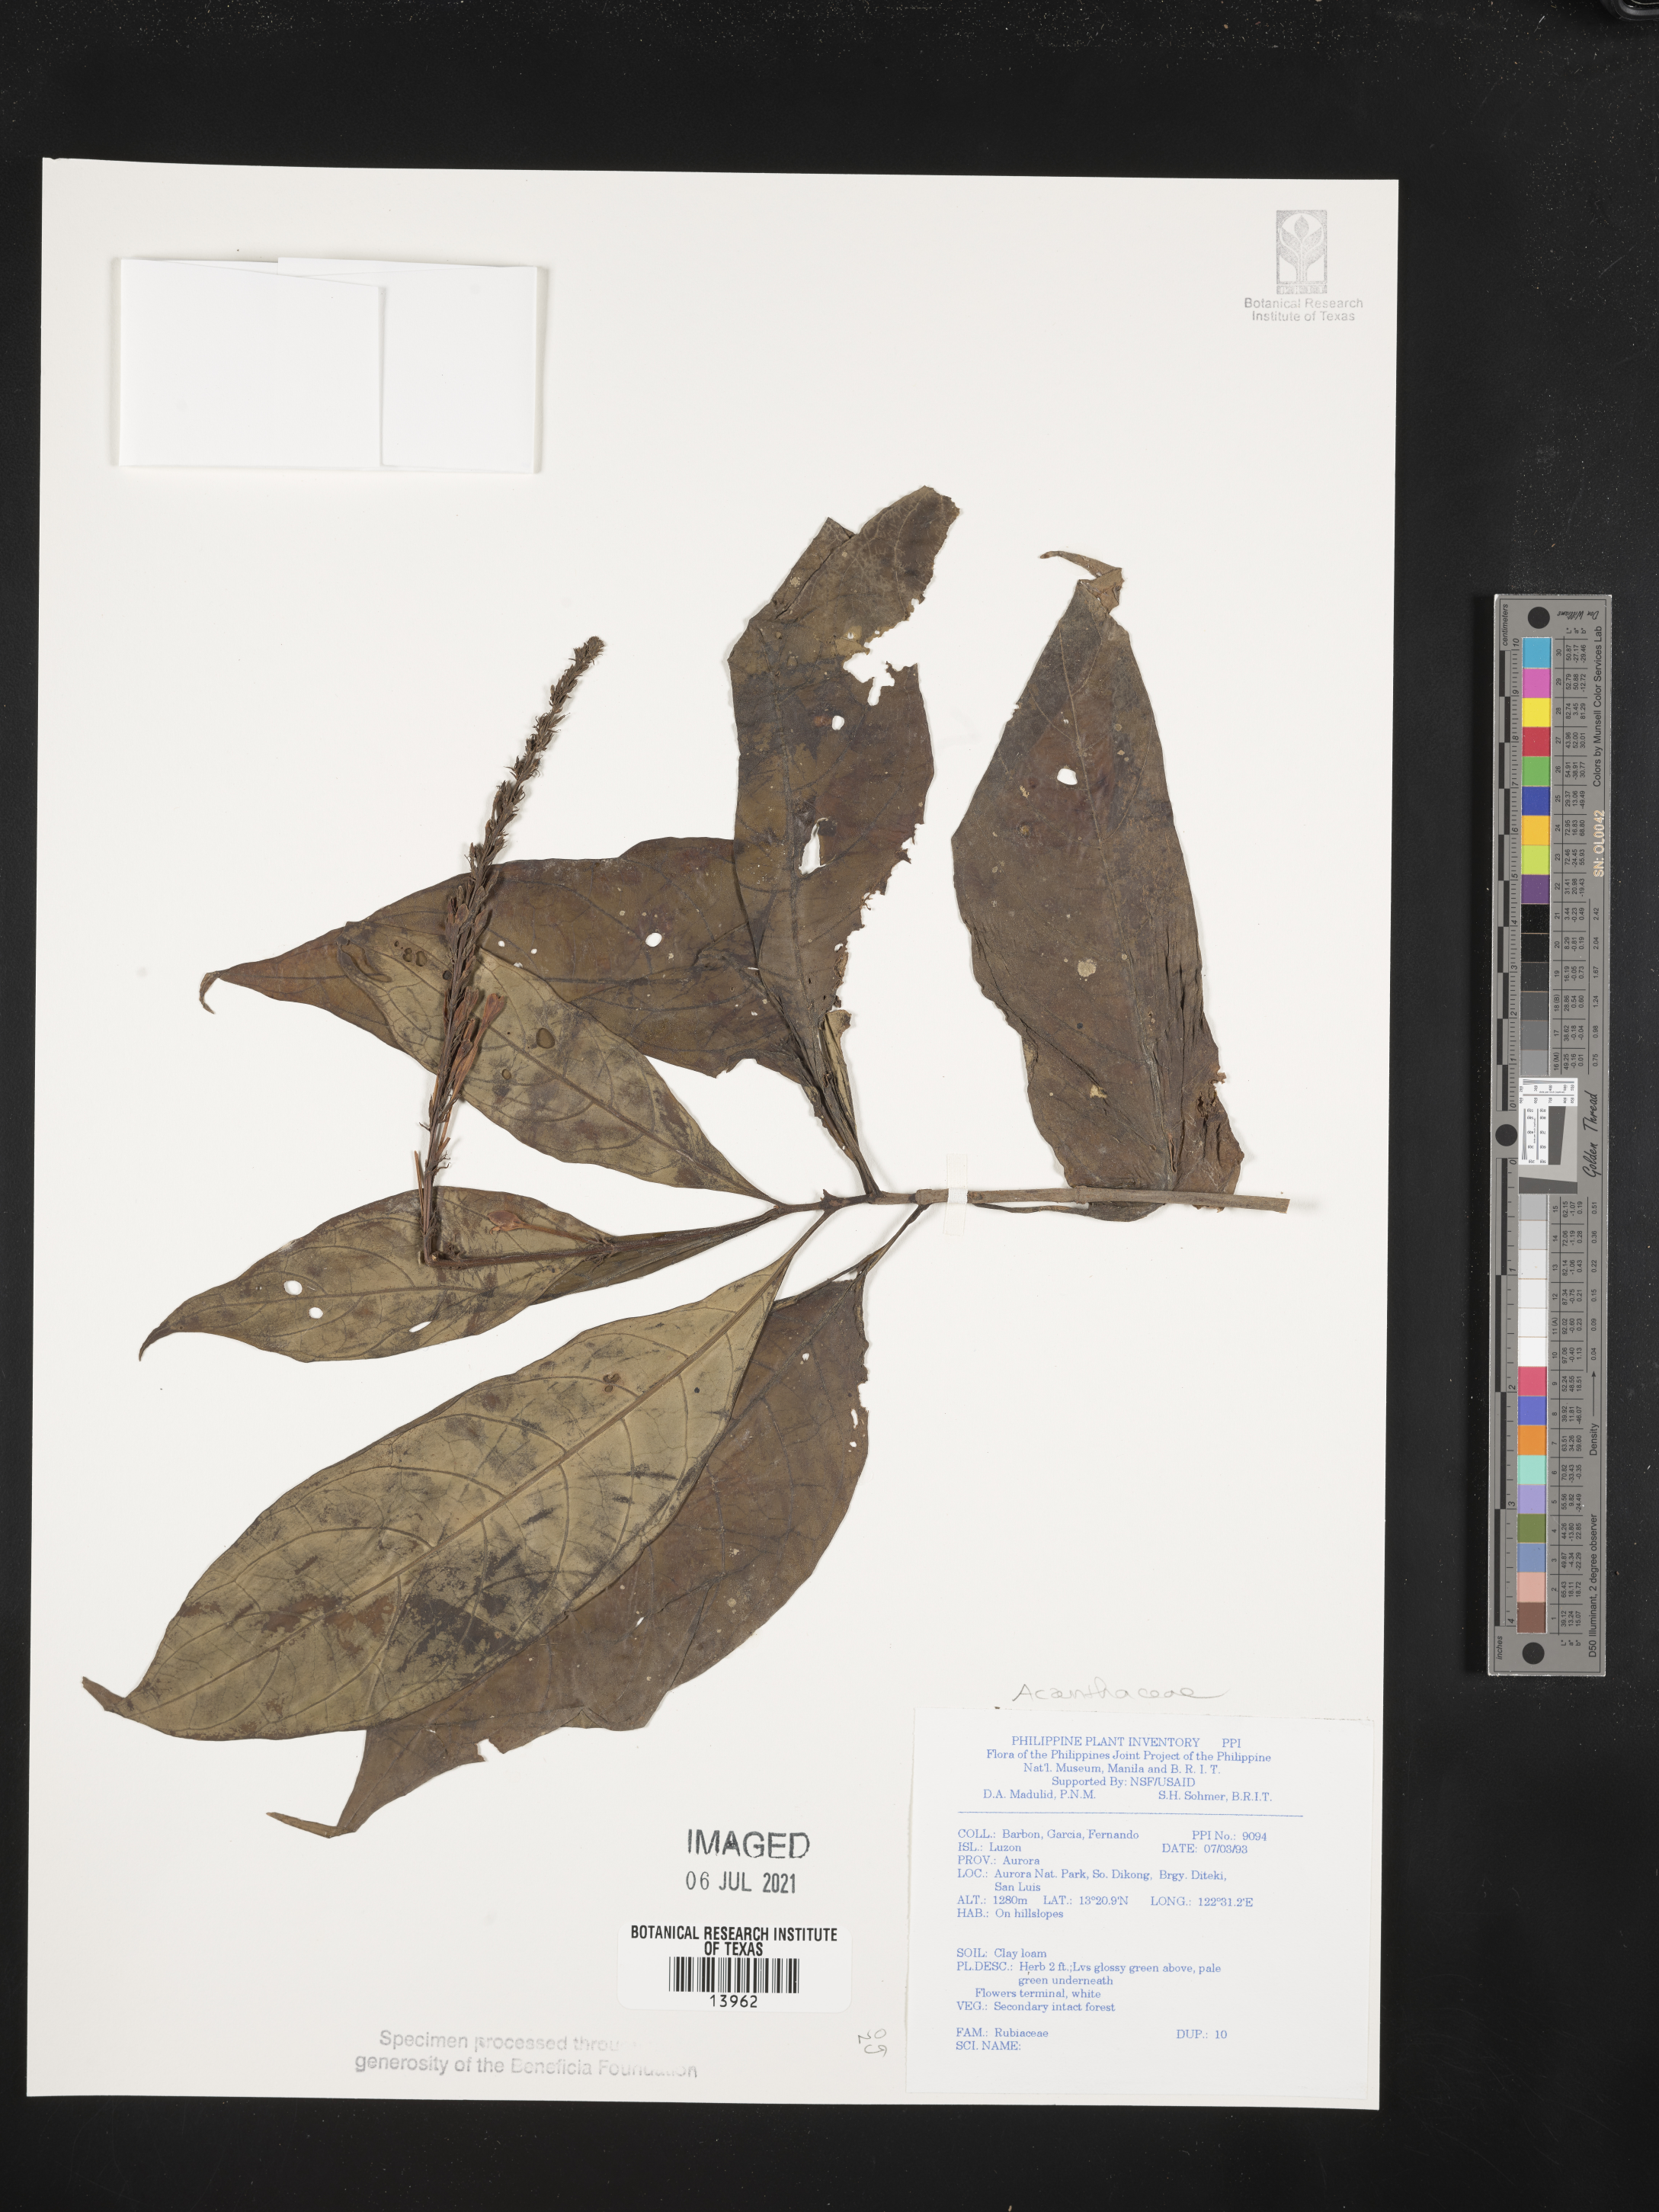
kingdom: Plantae
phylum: Tracheophyta
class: Magnoliopsida
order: Lamiales
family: Acanthaceae
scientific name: Acanthaceae
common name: Acanthaceae
